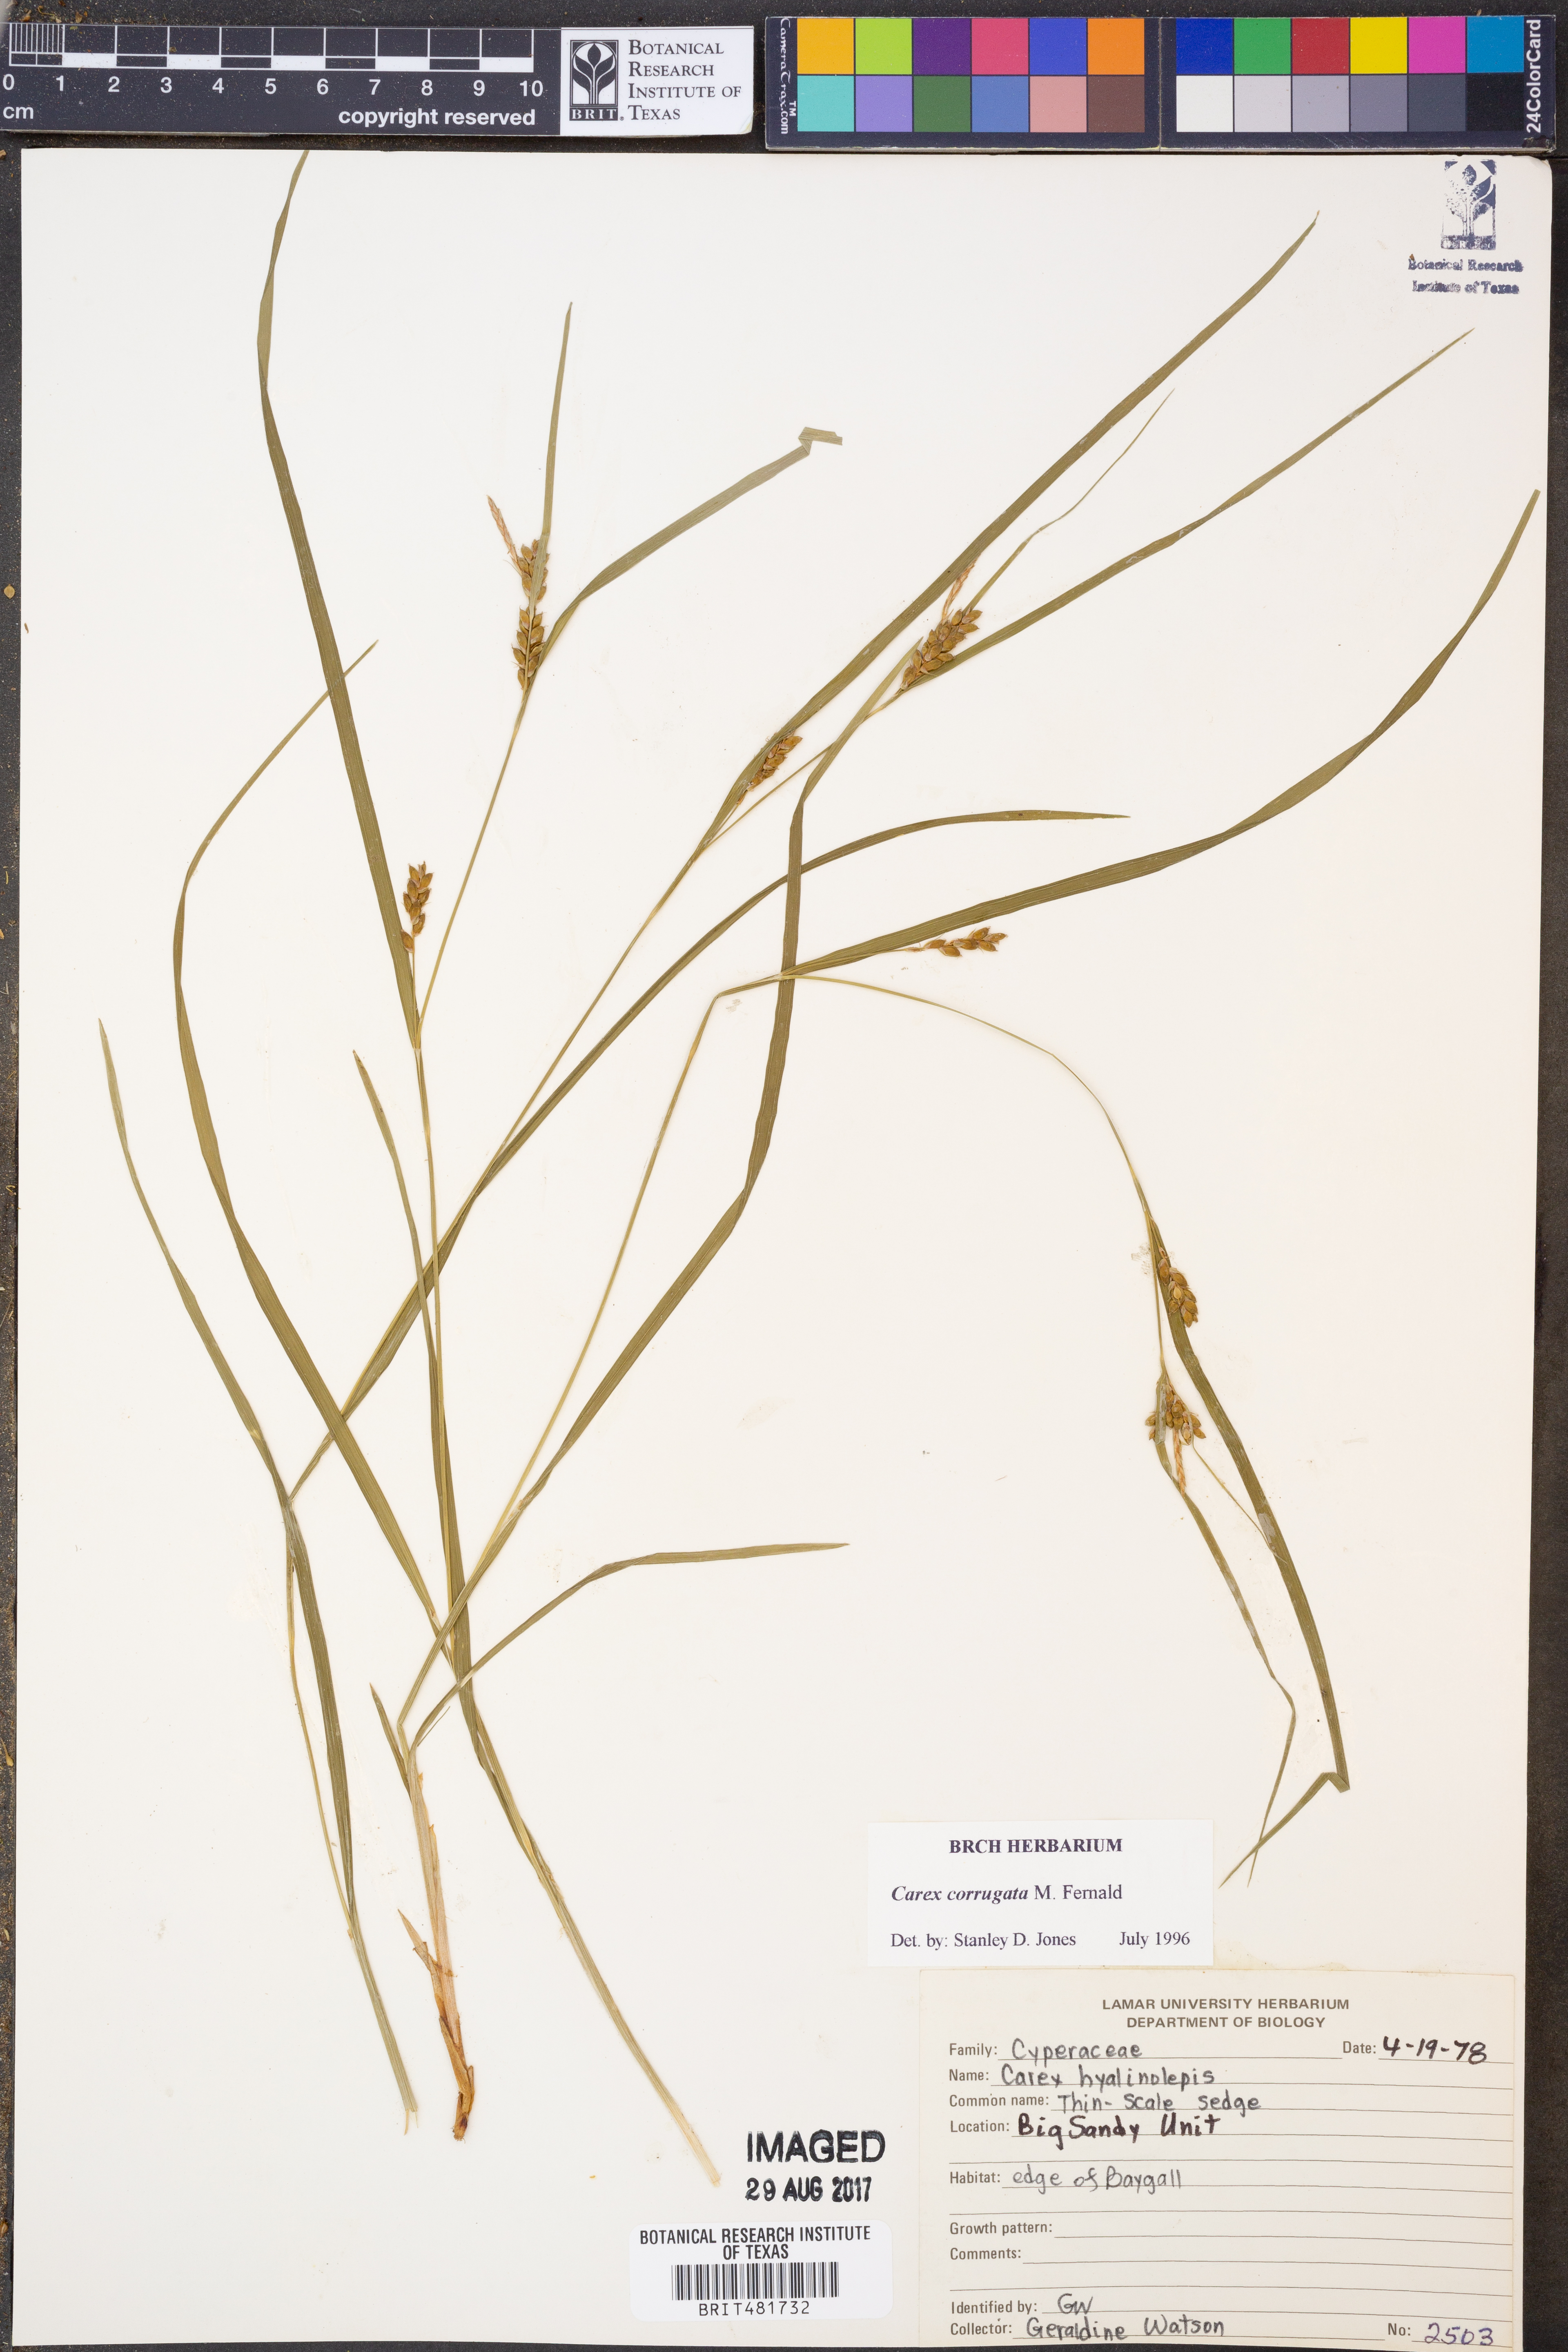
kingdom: Plantae
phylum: Tracheophyta
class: Liliopsida
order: Poales
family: Cyperaceae
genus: Carex
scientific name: Carex corrugata
